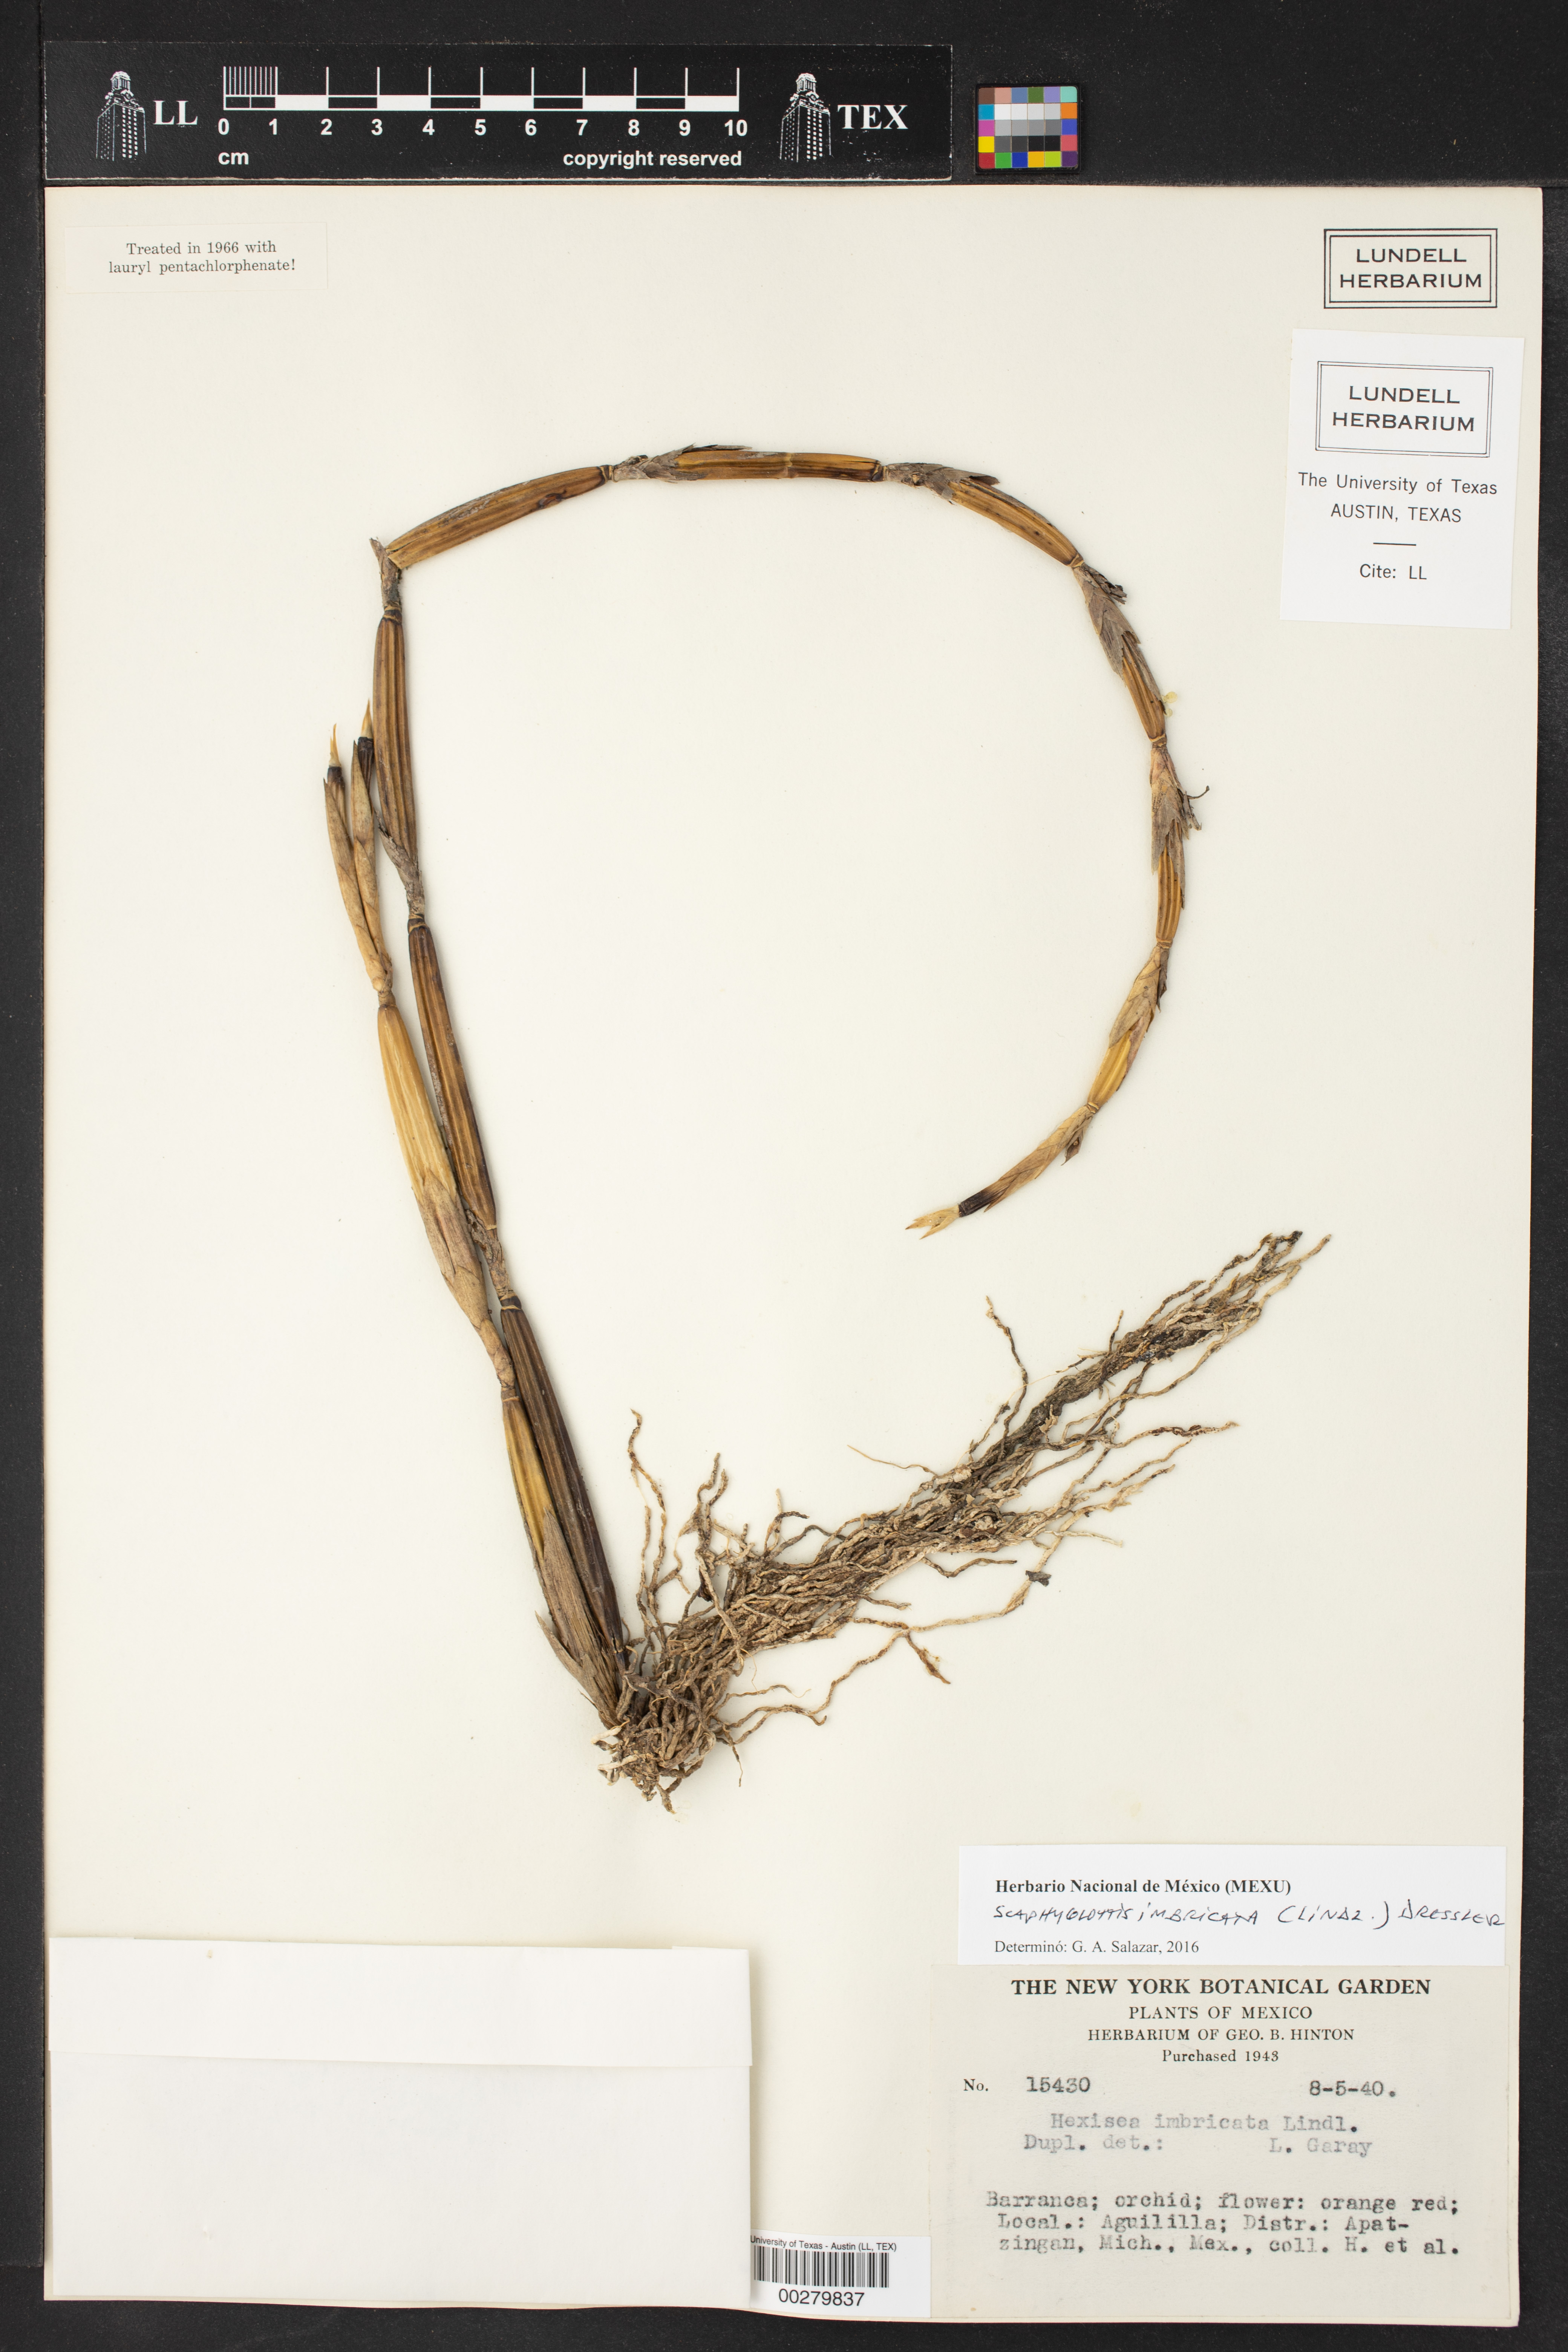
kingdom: Plantae
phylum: Tracheophyta
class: Liliopsida
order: Asparagales
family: Orchidaceae
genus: Scaphyglottis
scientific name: Scaphyglottis imbricata
